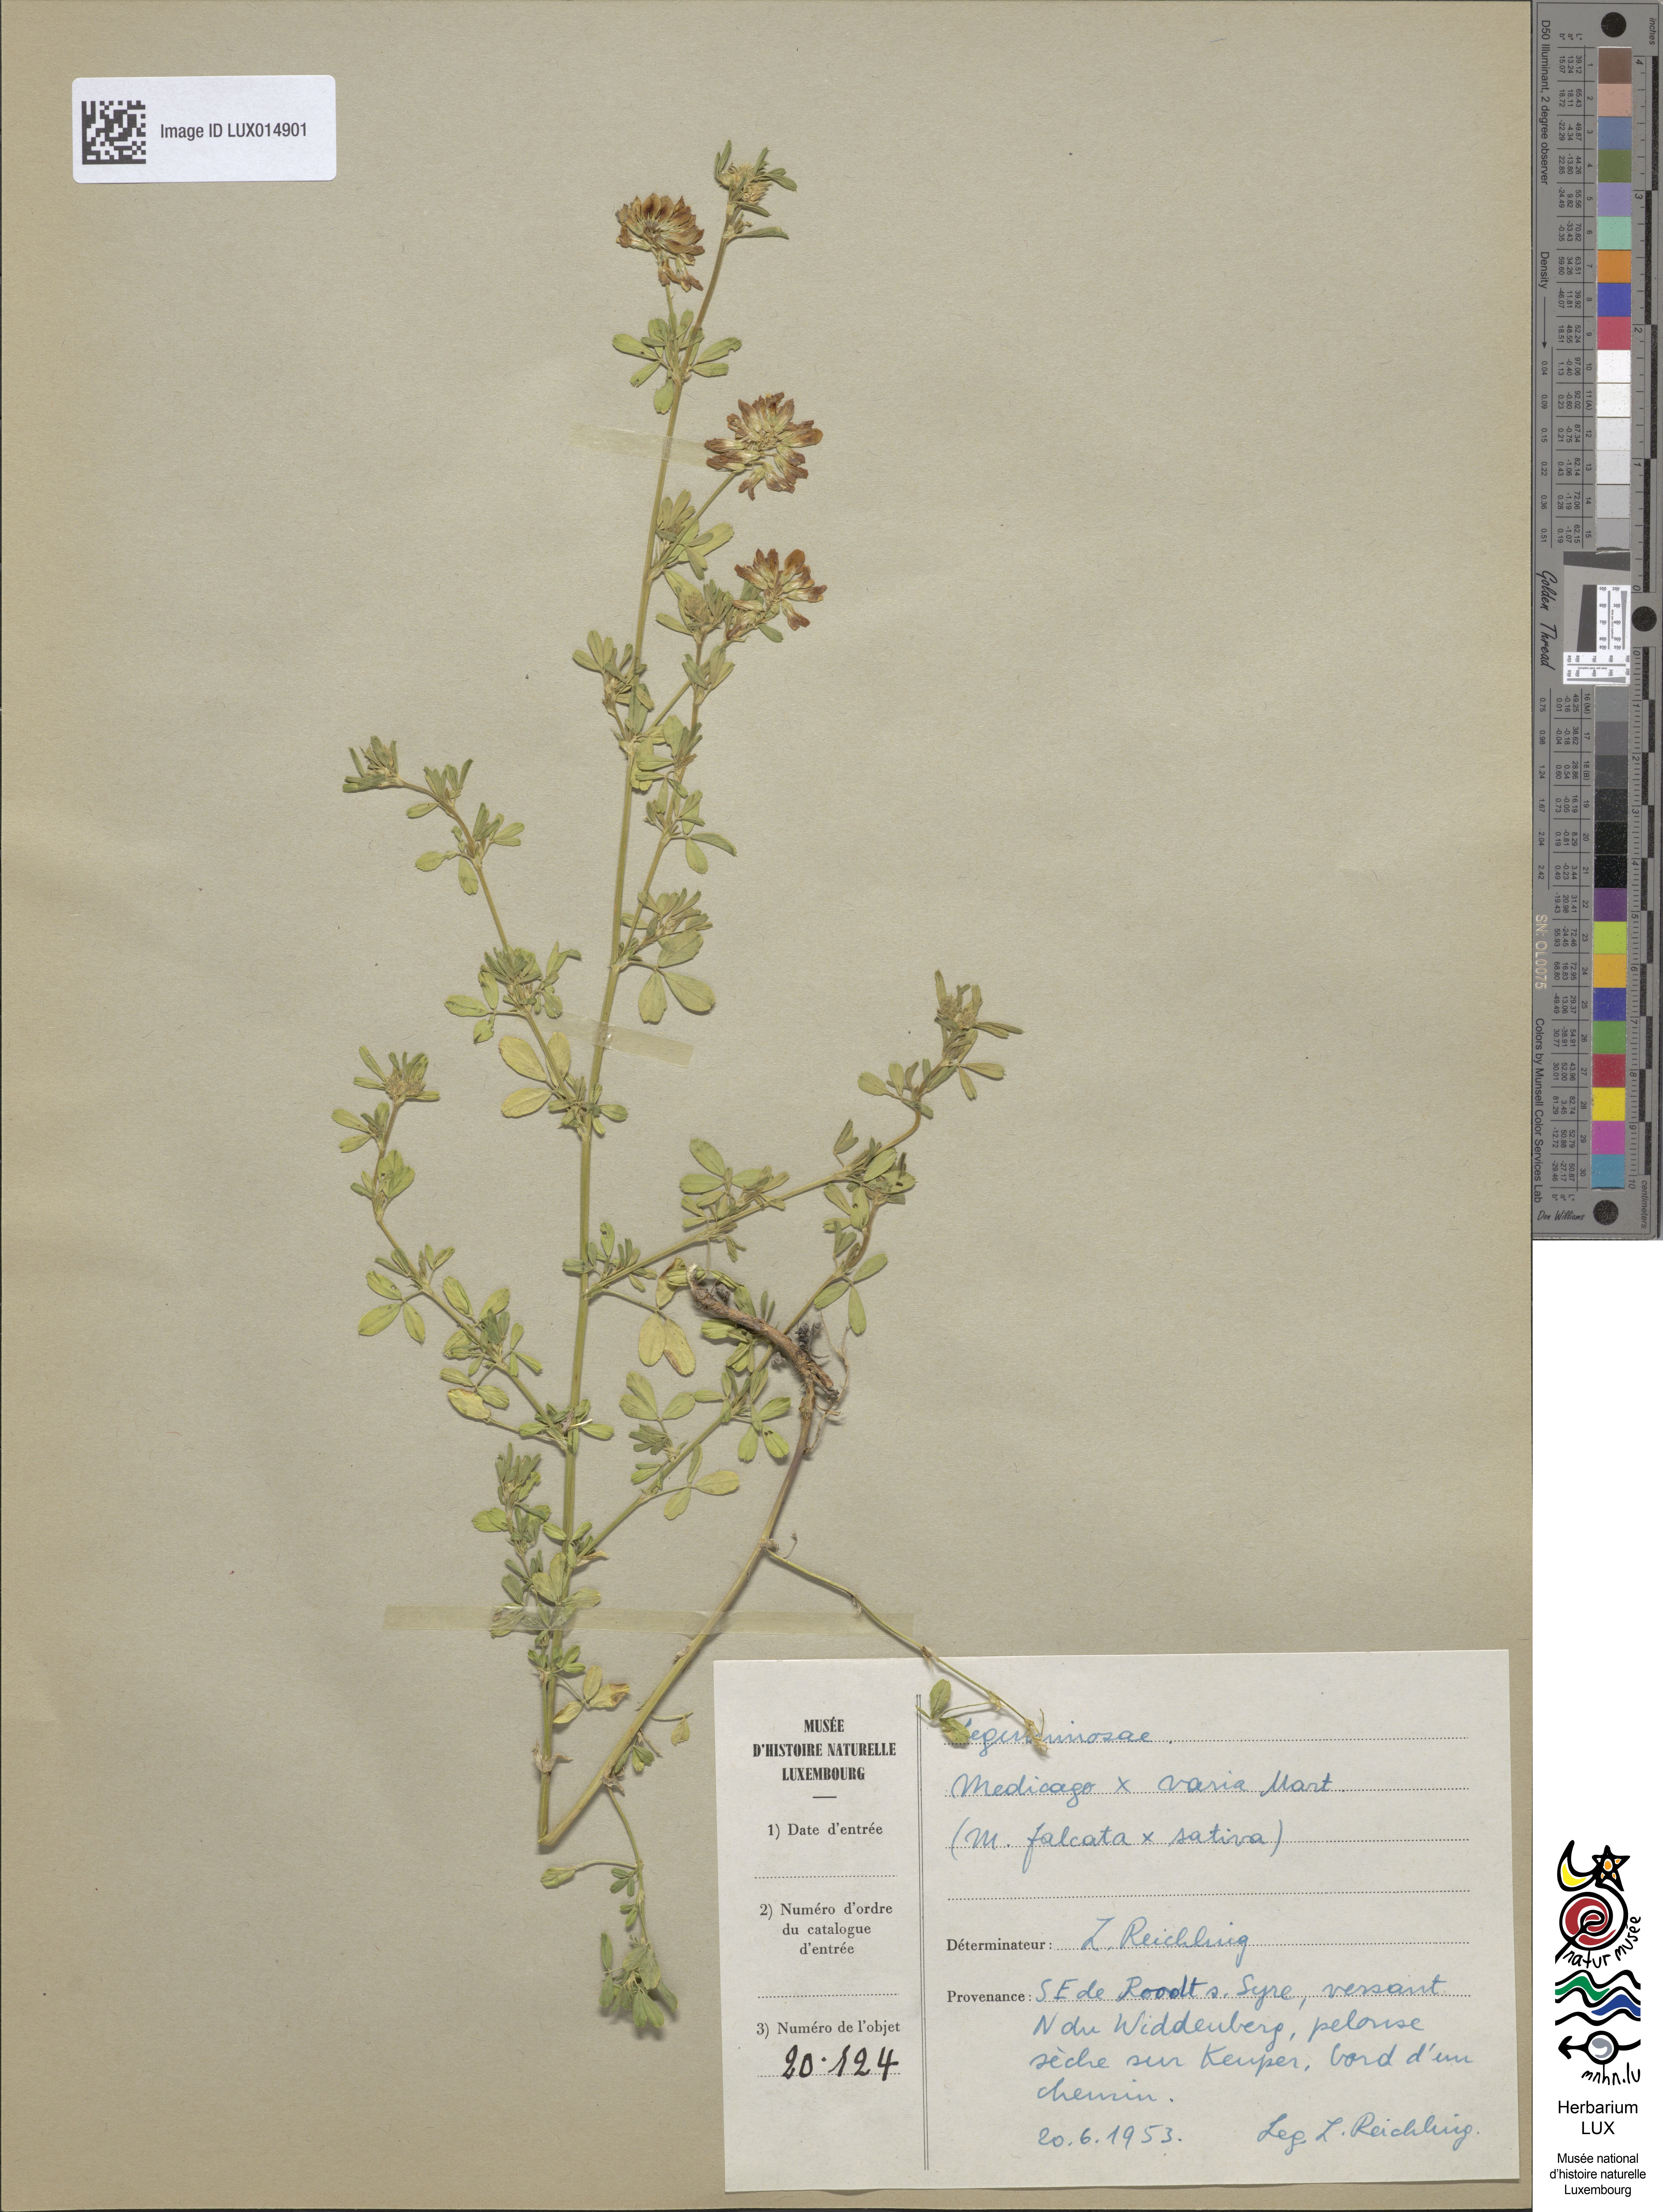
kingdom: Plantae
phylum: Tracheophyta
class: Magnoliopsida
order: Fabales
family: Fabaceae
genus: Medicago
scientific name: Medicago varia
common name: Sand lucerne
